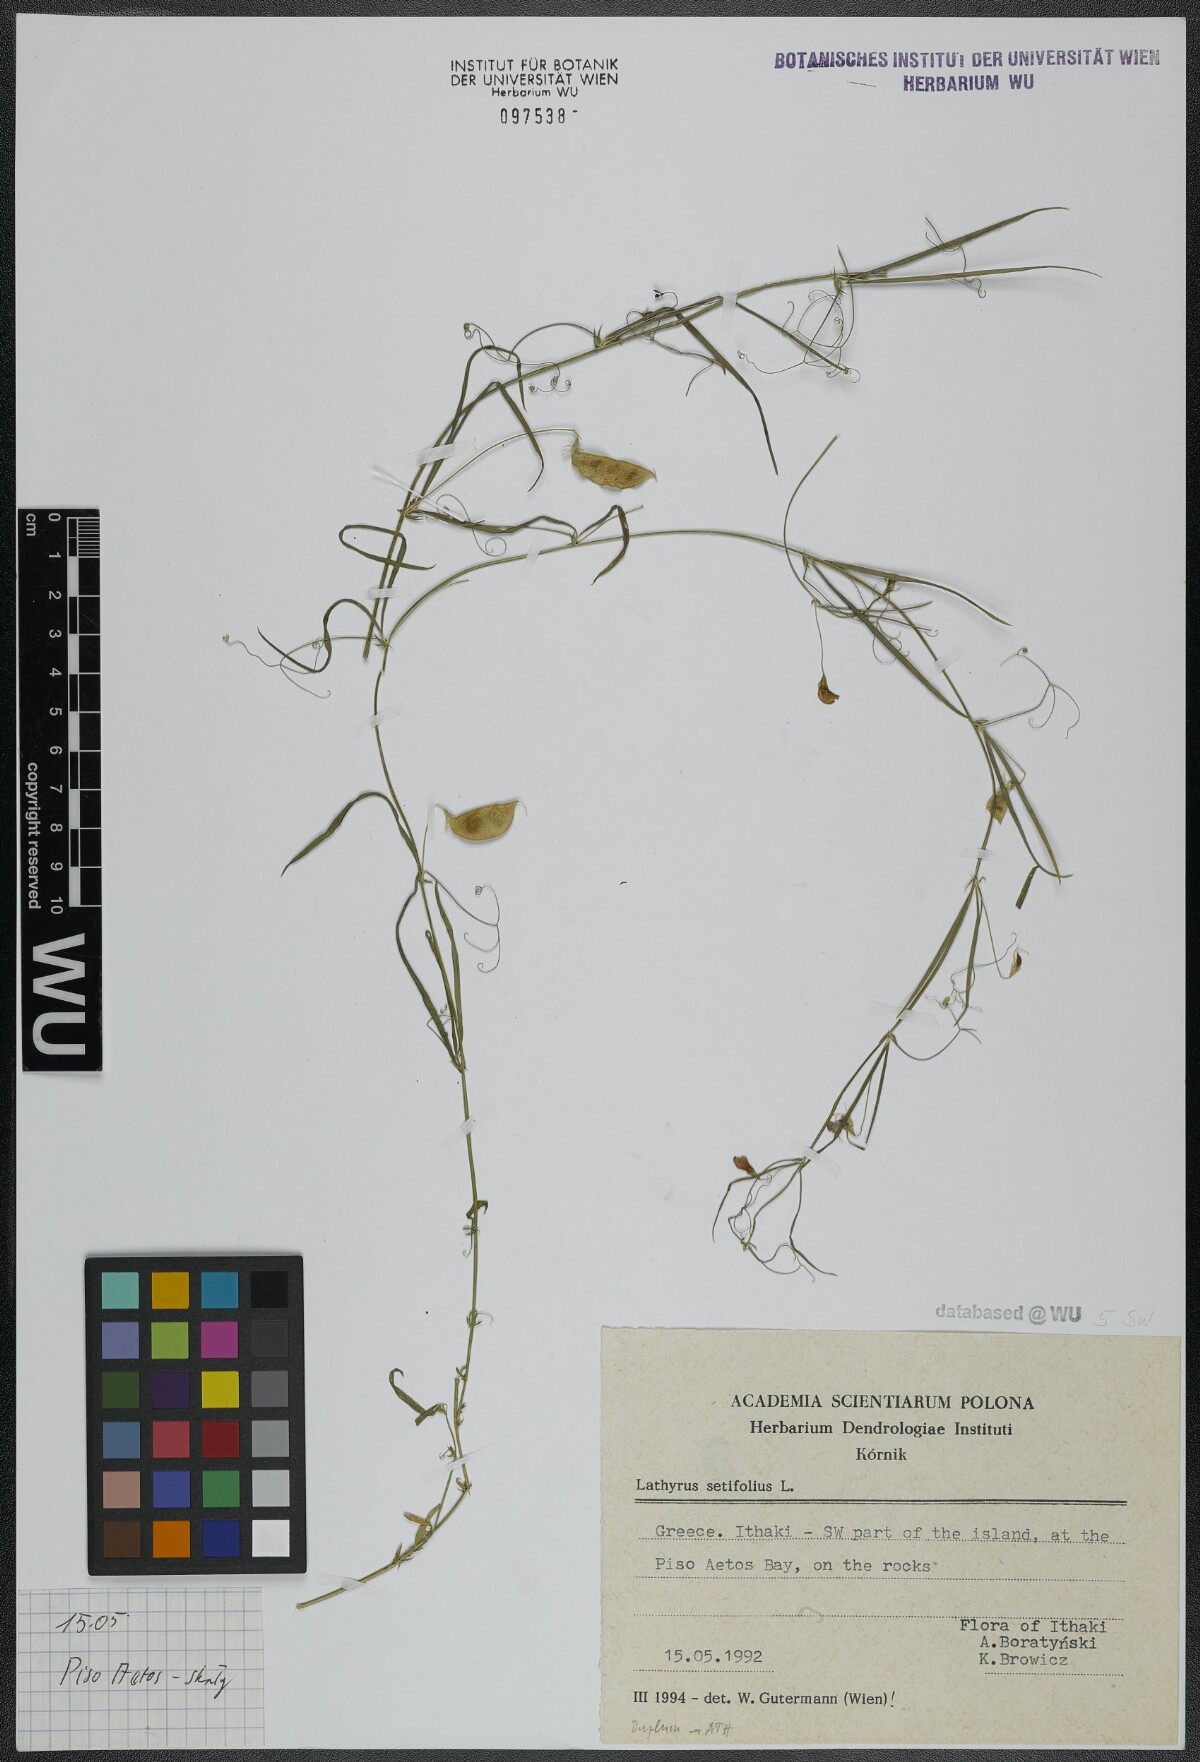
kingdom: Plantae
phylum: Tracheophyta
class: Magnoliopsida
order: Fabales
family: Fabaceae
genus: Lathyrus
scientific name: Lathyrus setifolius
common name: Brown vetchling
